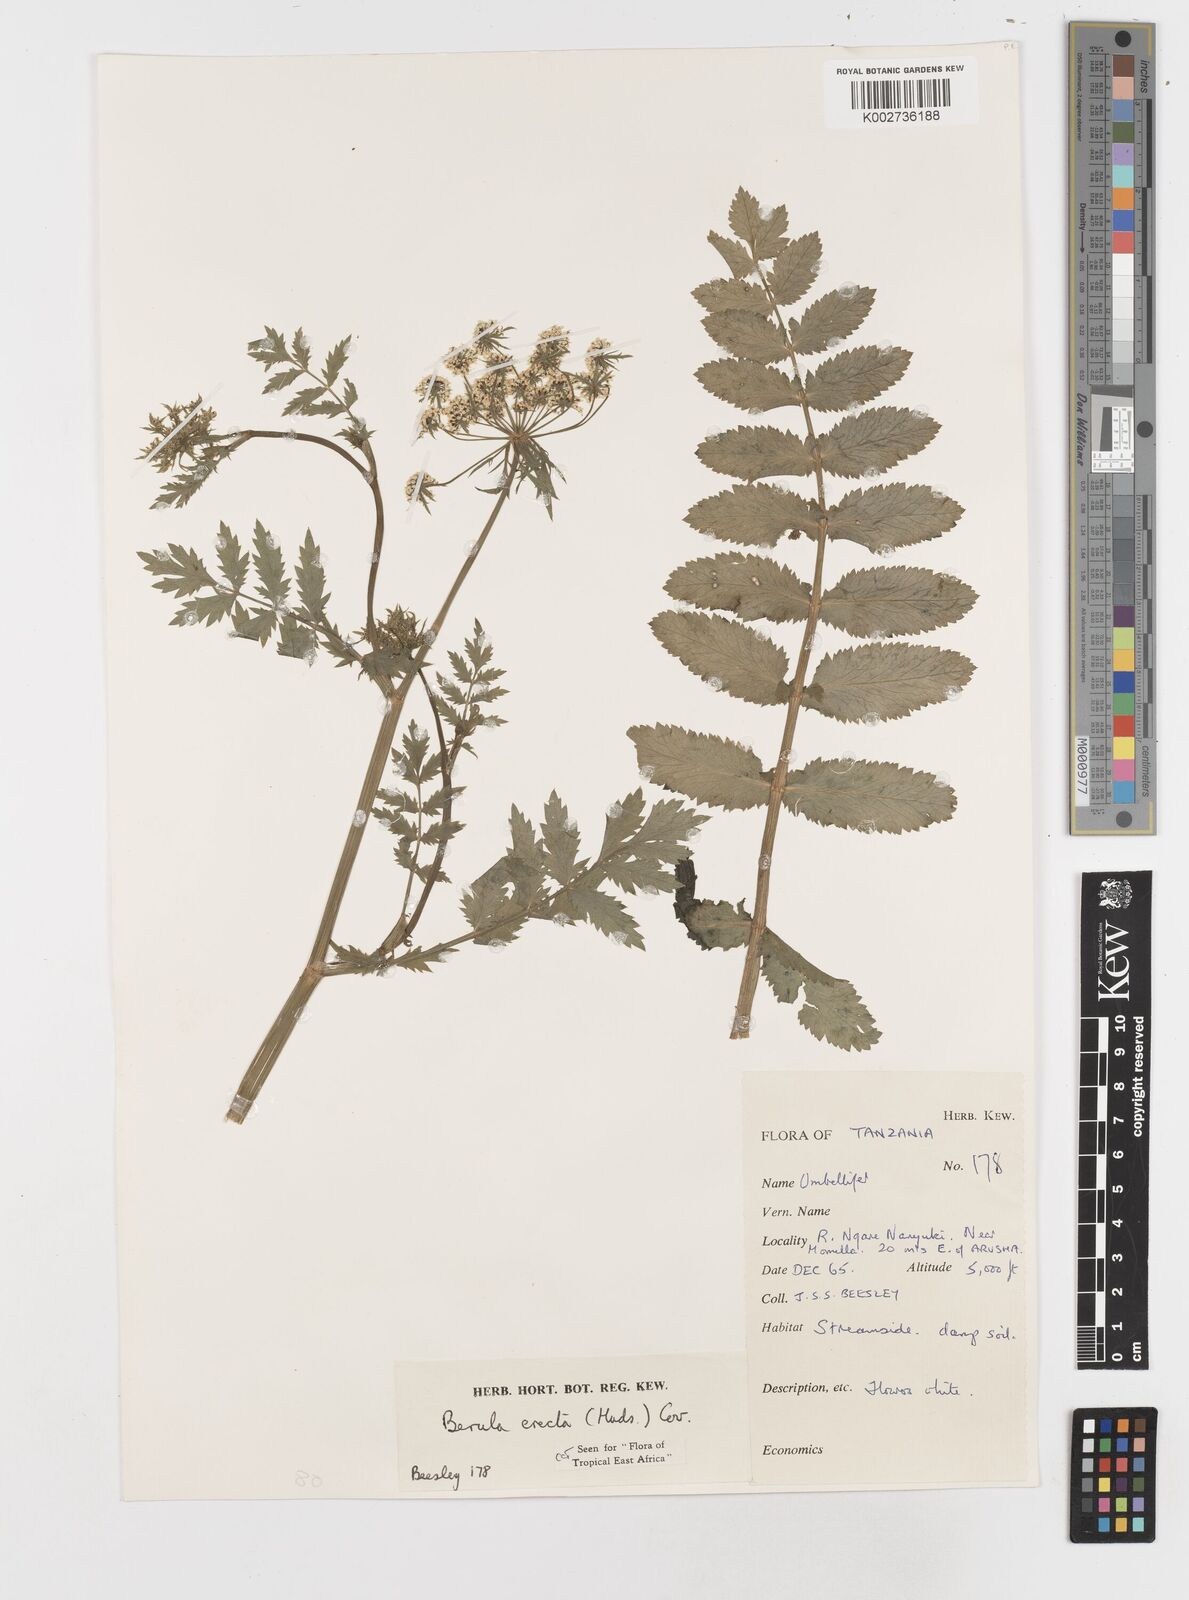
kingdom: Plantae
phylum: Tracheophyta
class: Magnoliopsida
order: Apiales
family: Apiaceae
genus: Berula
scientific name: Berula erecta
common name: Lesser water-parsnip
